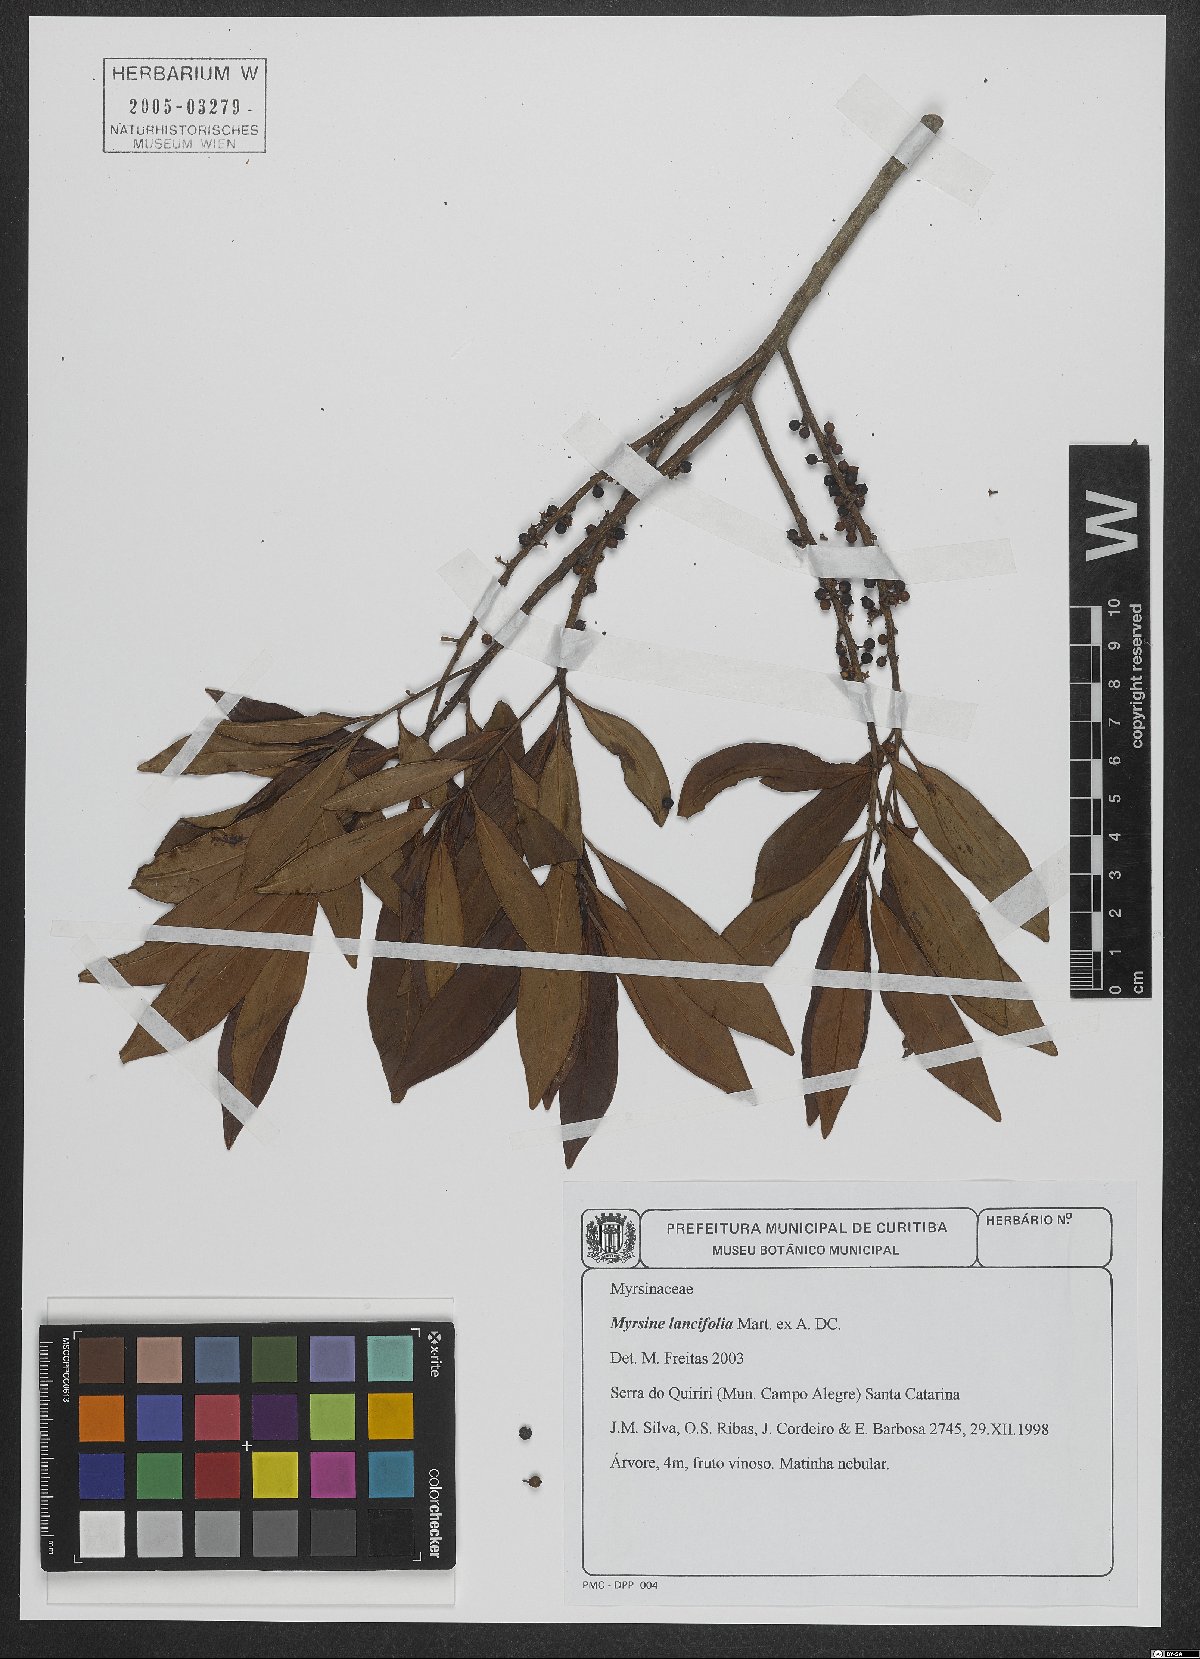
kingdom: Plantae
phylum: Tracheophyta
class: Magnoliopsida
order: Ericales
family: Primulaceae
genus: Myrsine
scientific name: Myrsine lancifolia
